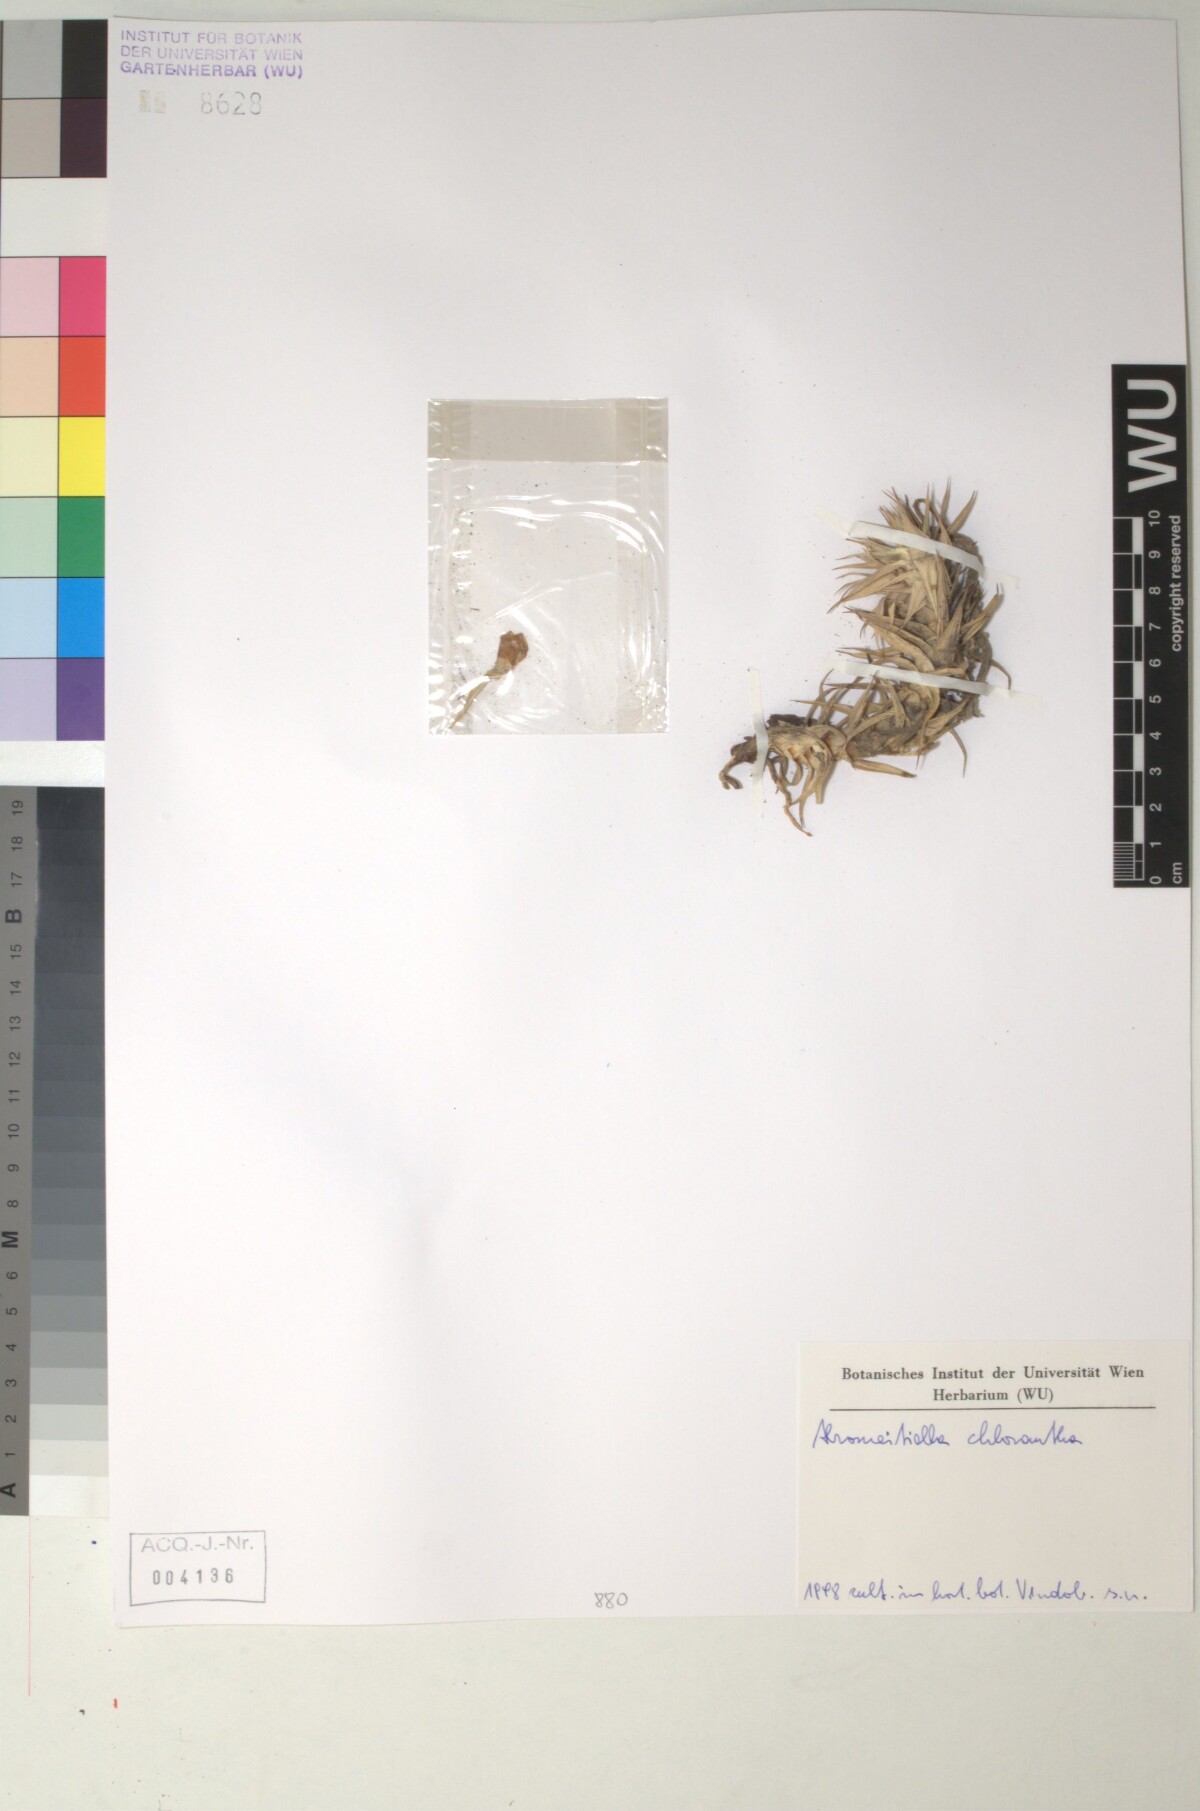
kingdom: Plantae
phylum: Tracheophyta
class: Liliopsida
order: Poales
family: Bromeliaceae
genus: Deuterocohnia
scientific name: Deuterocohnia brevifolia
